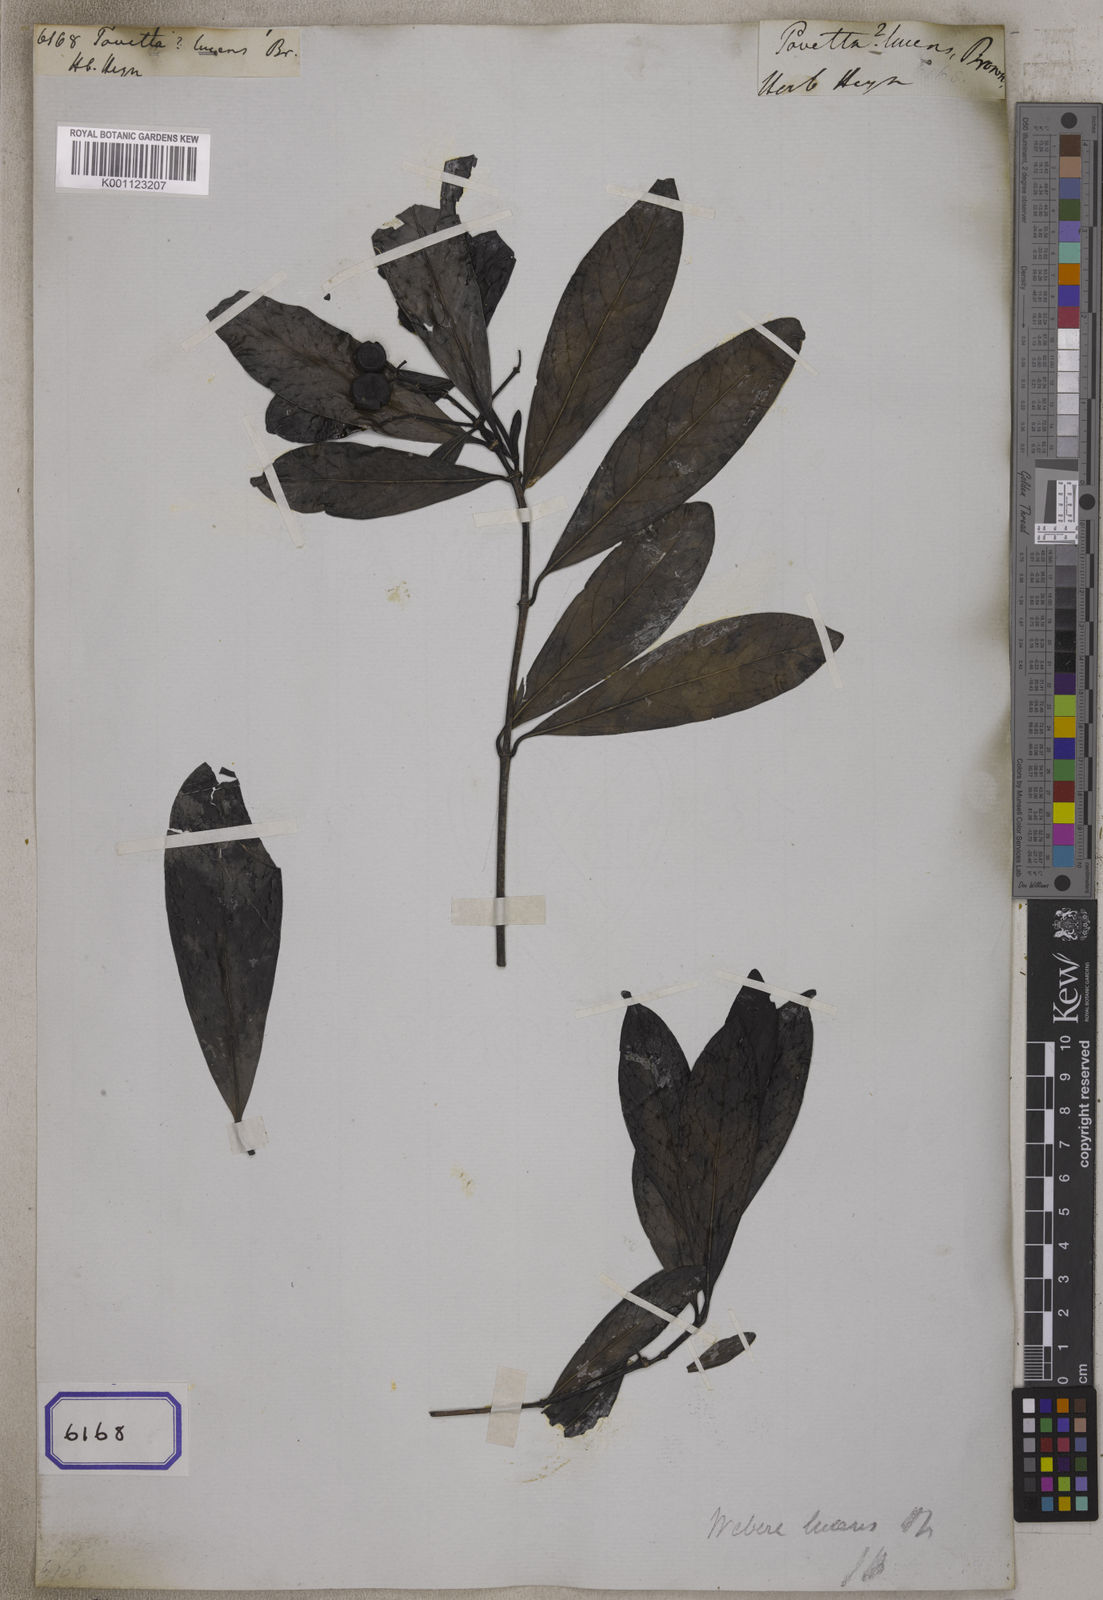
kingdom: Plantae
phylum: Tracheophyta
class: Magnoliopsida
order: Gentianales
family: Rubiaceae
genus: Pavetta
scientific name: Pavetta
